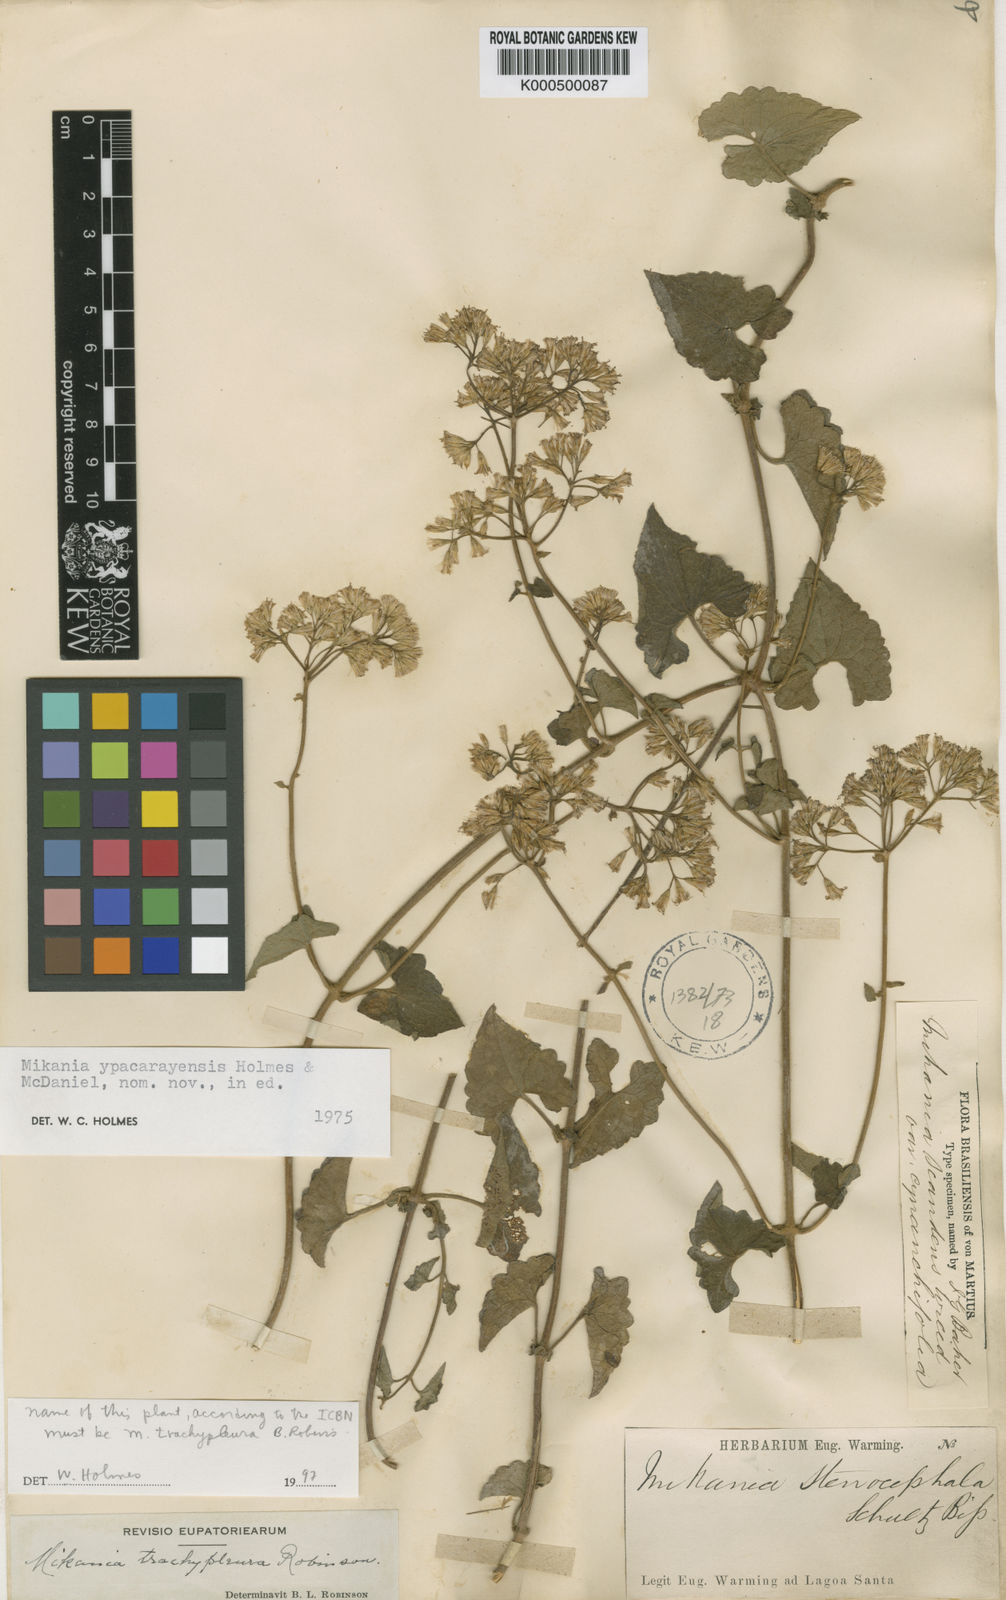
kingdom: Plantae
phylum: Tracheophyta
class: Magnoliopsida
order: Asterales
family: Asteraceae
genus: Mikania
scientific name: Mikania trachypleura
